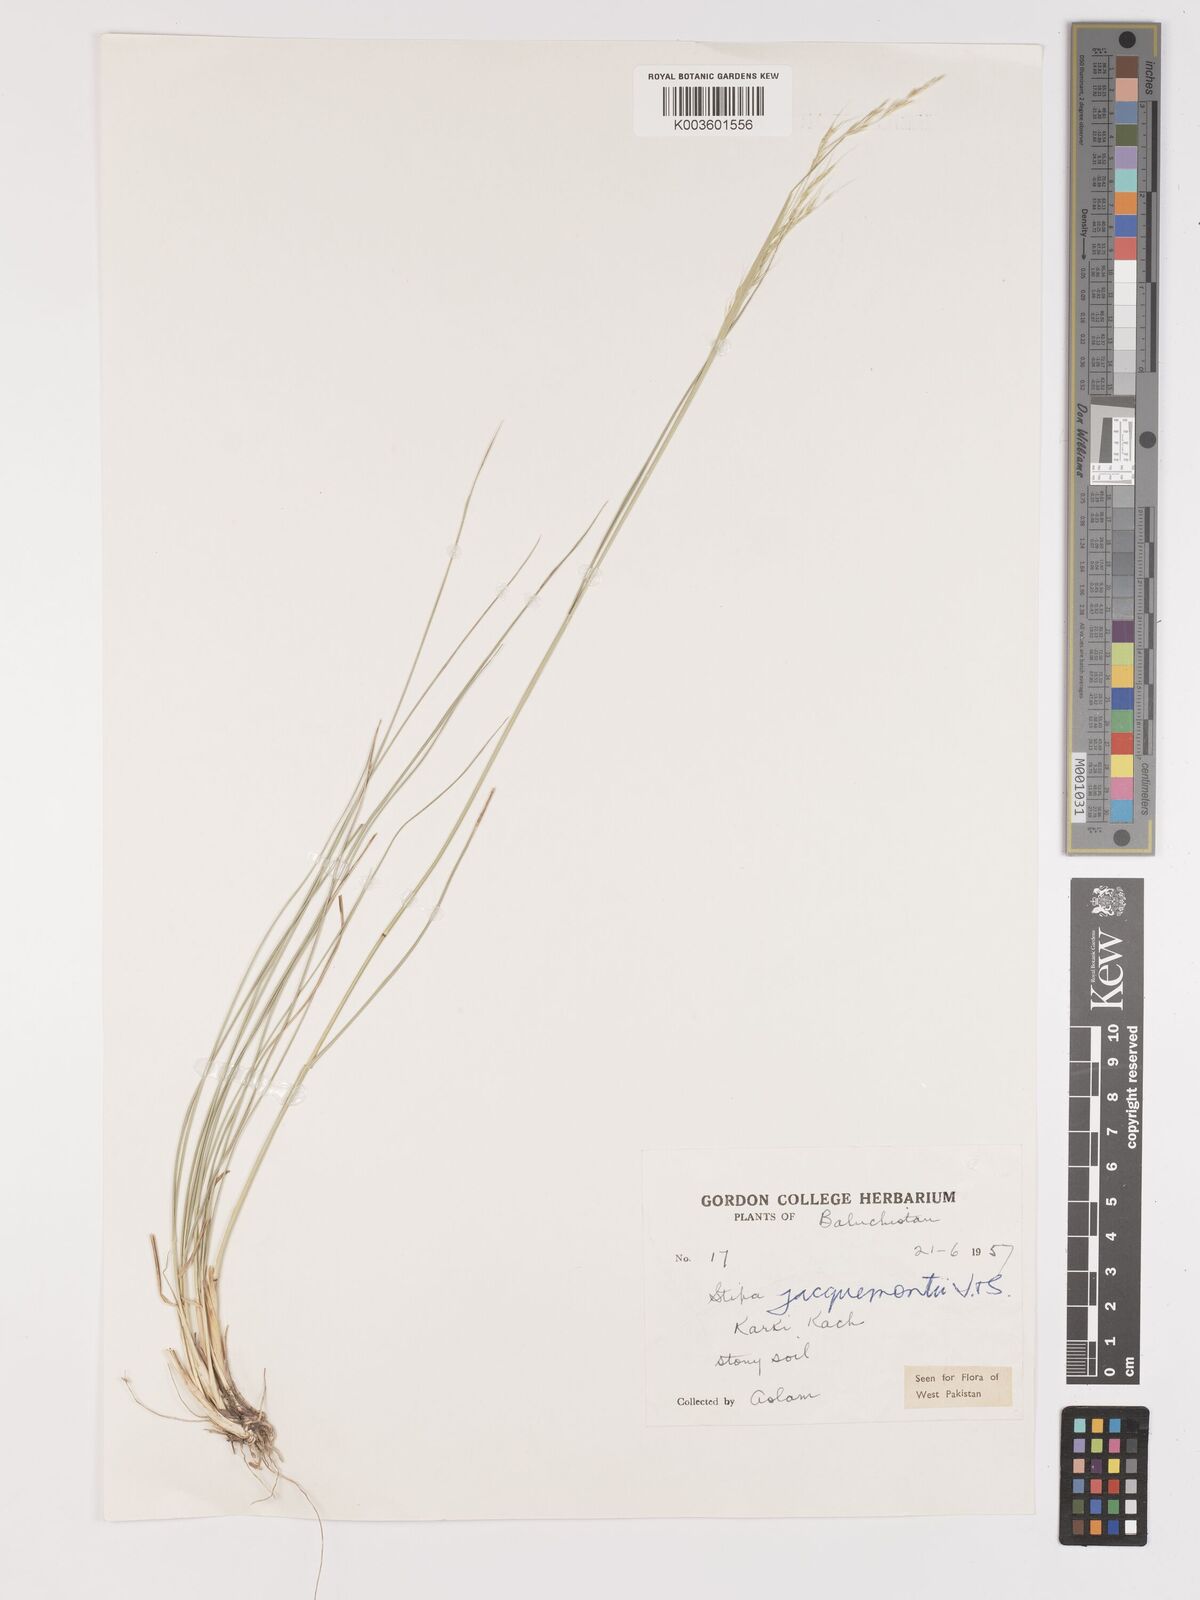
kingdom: Plantae
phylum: Tracheophyta
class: Liliopsida
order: Poales
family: Poaceae
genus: Achnatherum
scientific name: Achnatherum jacquemontii
